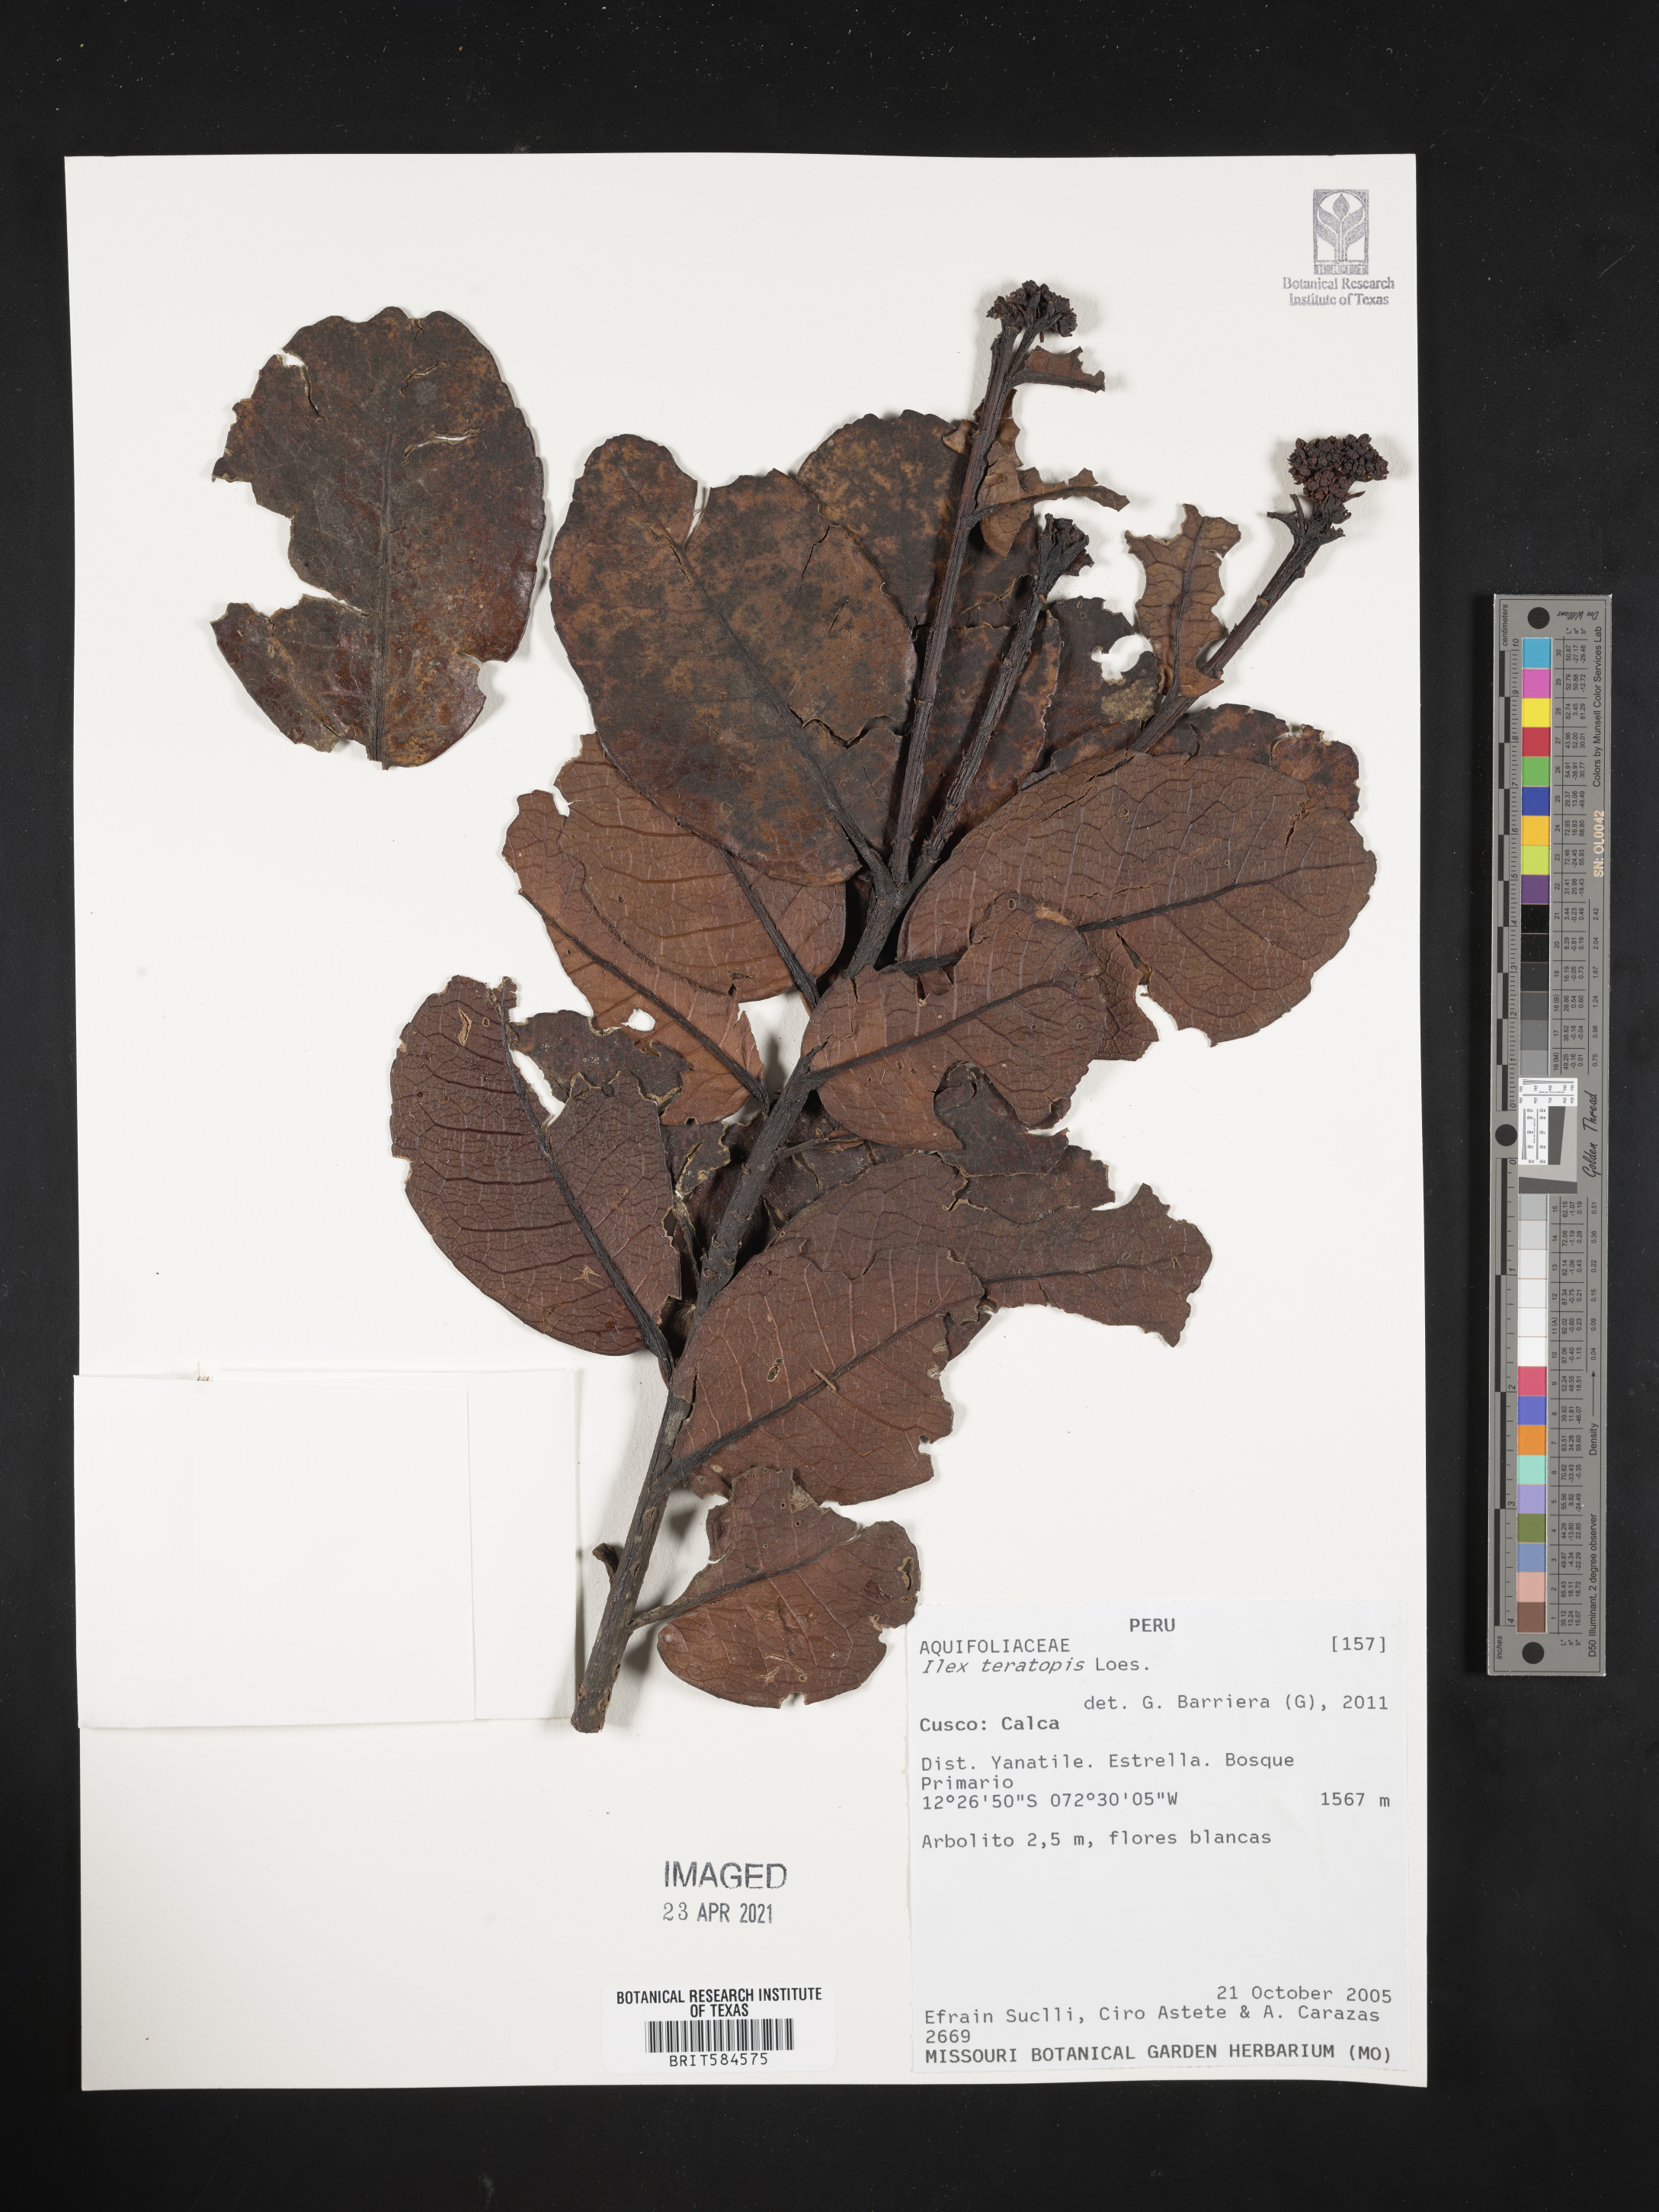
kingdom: Plantae
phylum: Tracheophyta
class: Magnoliopsida
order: Aquifoliales
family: Aquifoliaceae
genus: Ilex
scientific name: Ilex teratopis
